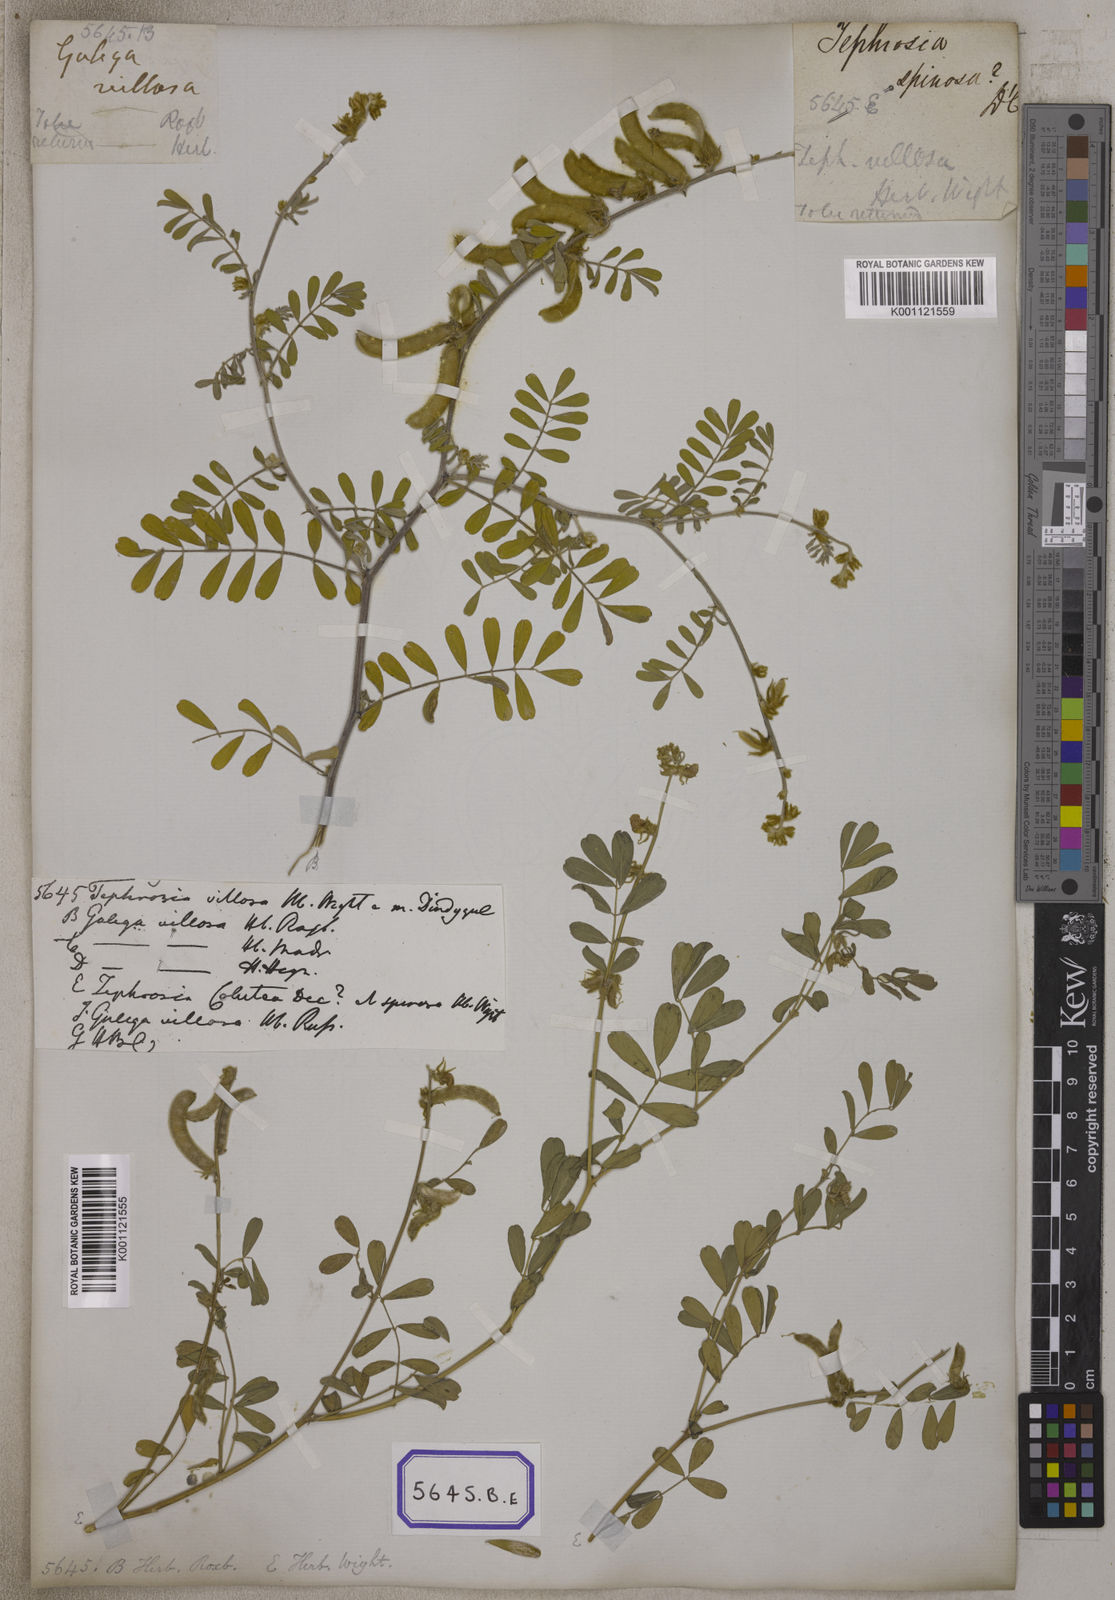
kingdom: Plantae
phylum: Tracheophyta
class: Magnoliopsida
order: Fabales
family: Fabaceae
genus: Tephrosia
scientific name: Tephrosia villosa
